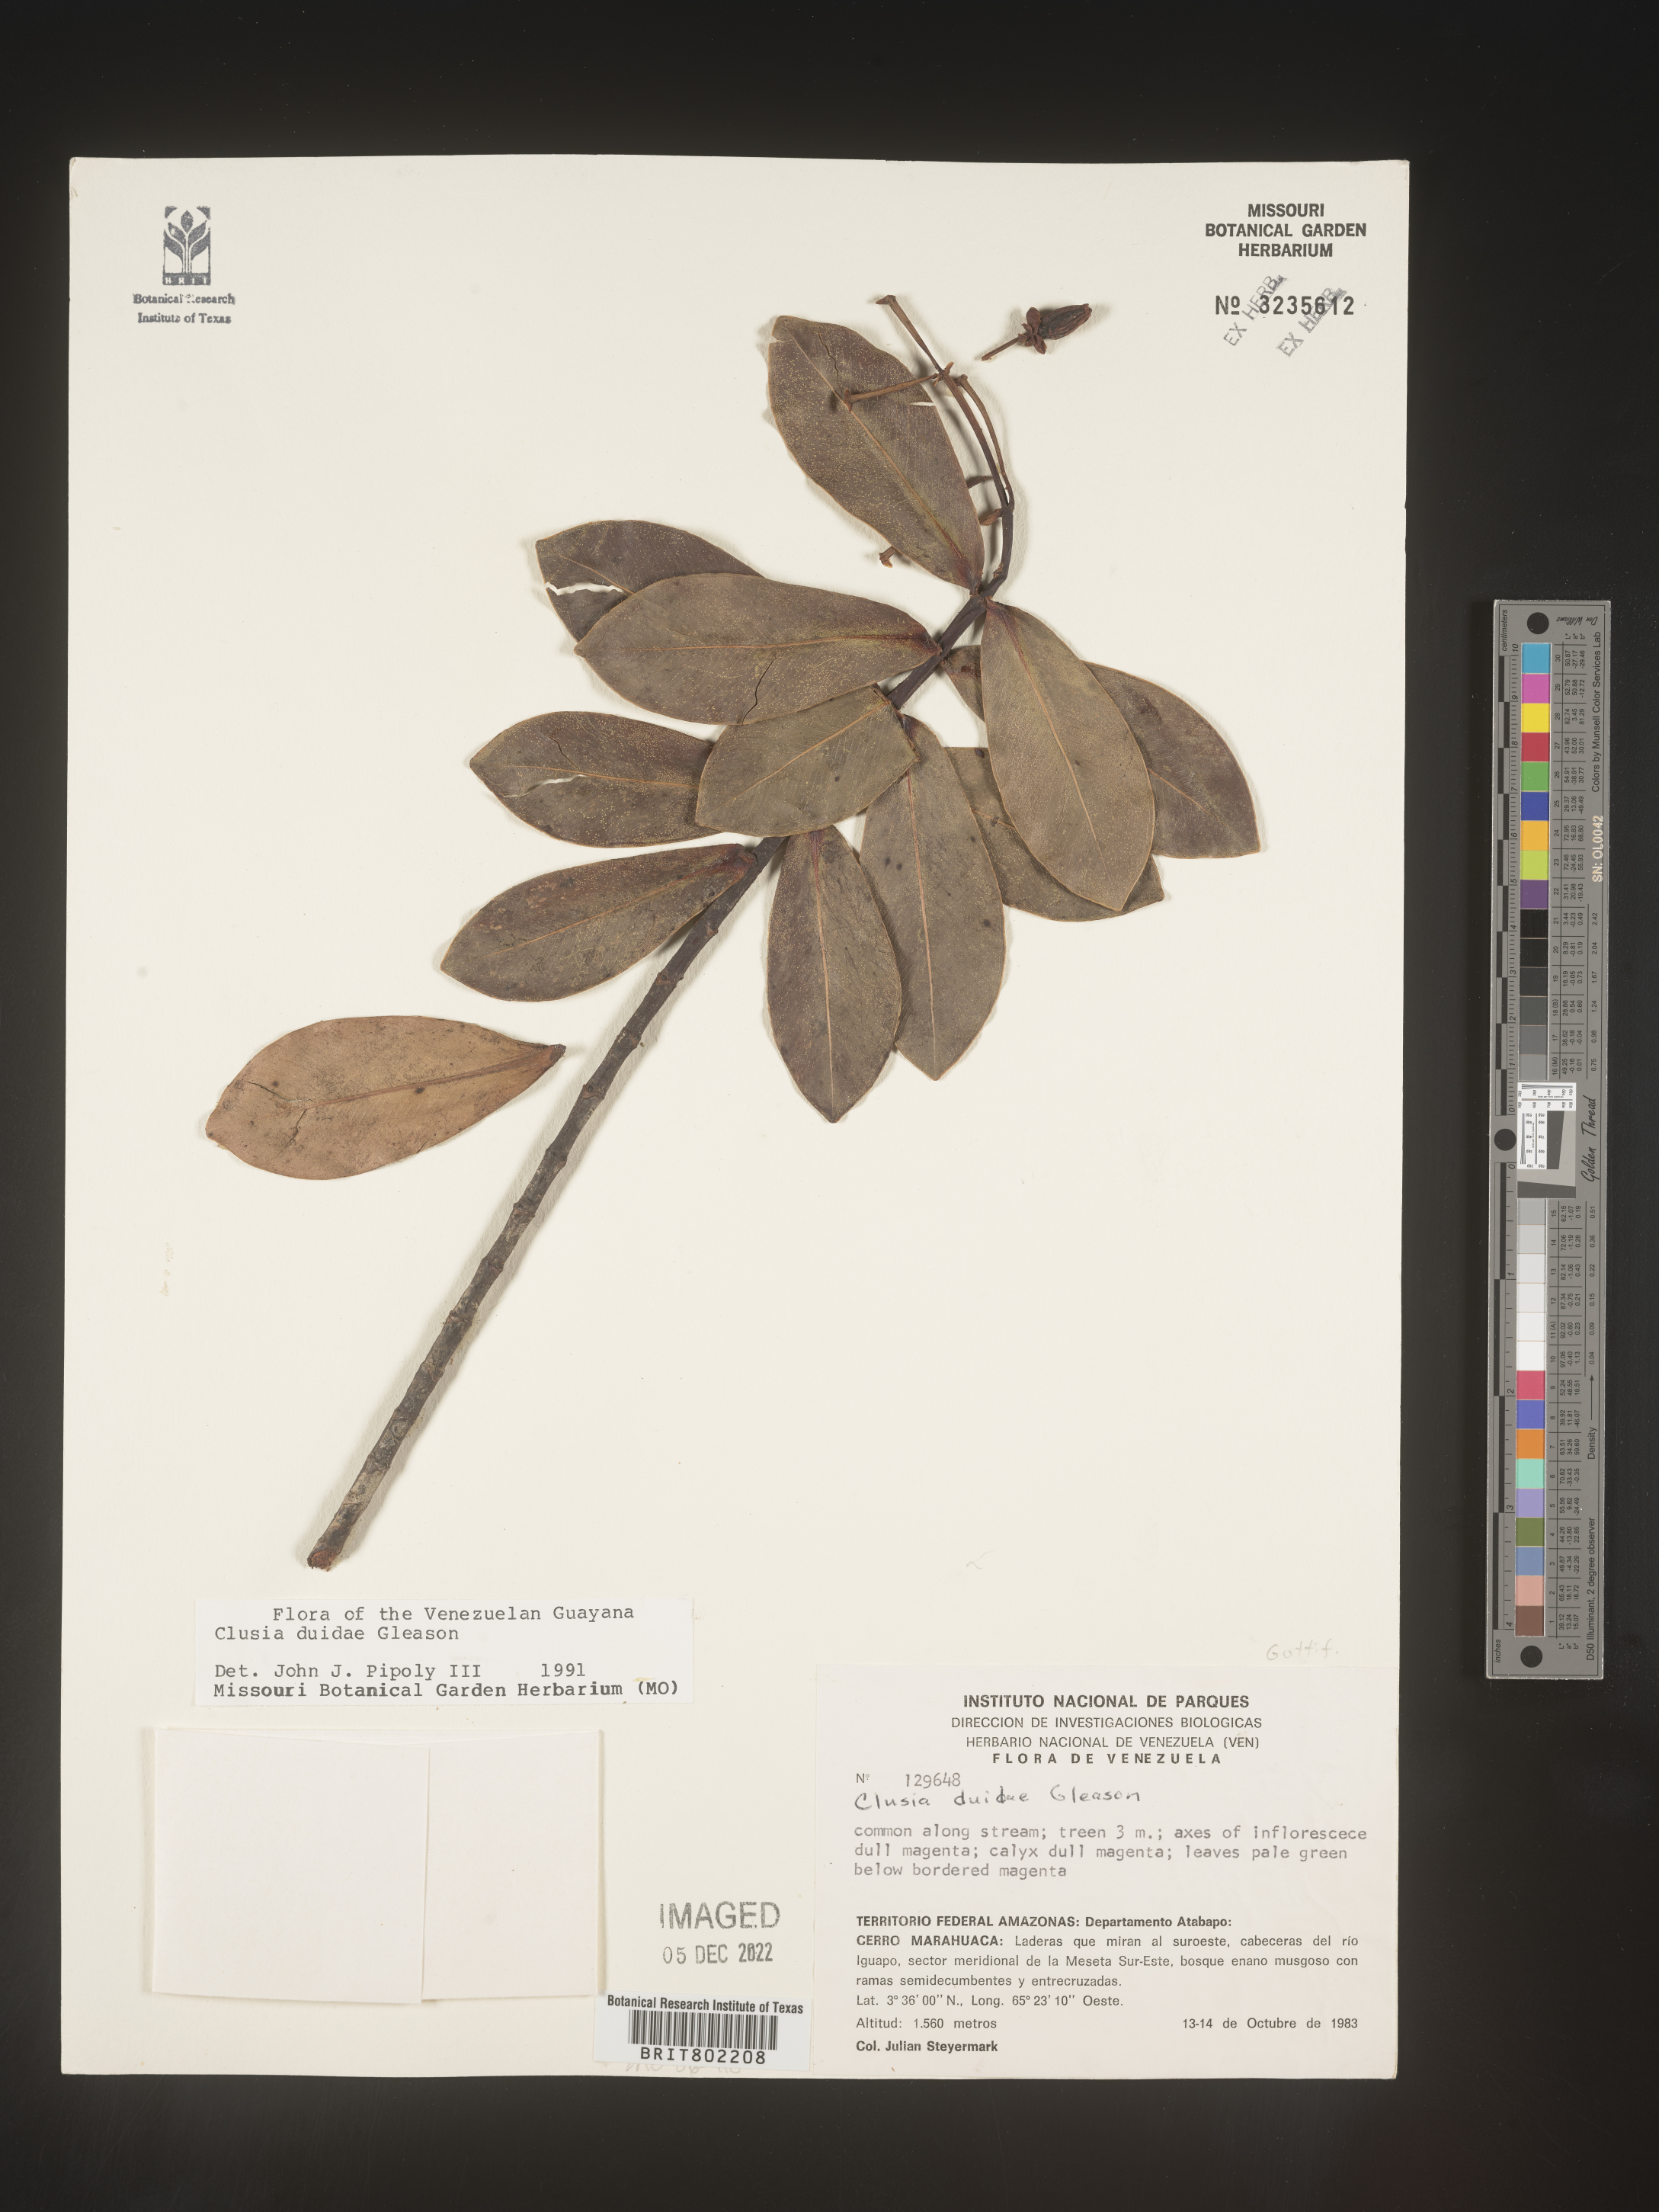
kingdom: Plantae
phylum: Tracheophyta
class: Magnoliopsida
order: Malpighiales
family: Clusiaceae
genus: Clusia
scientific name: Clusia
